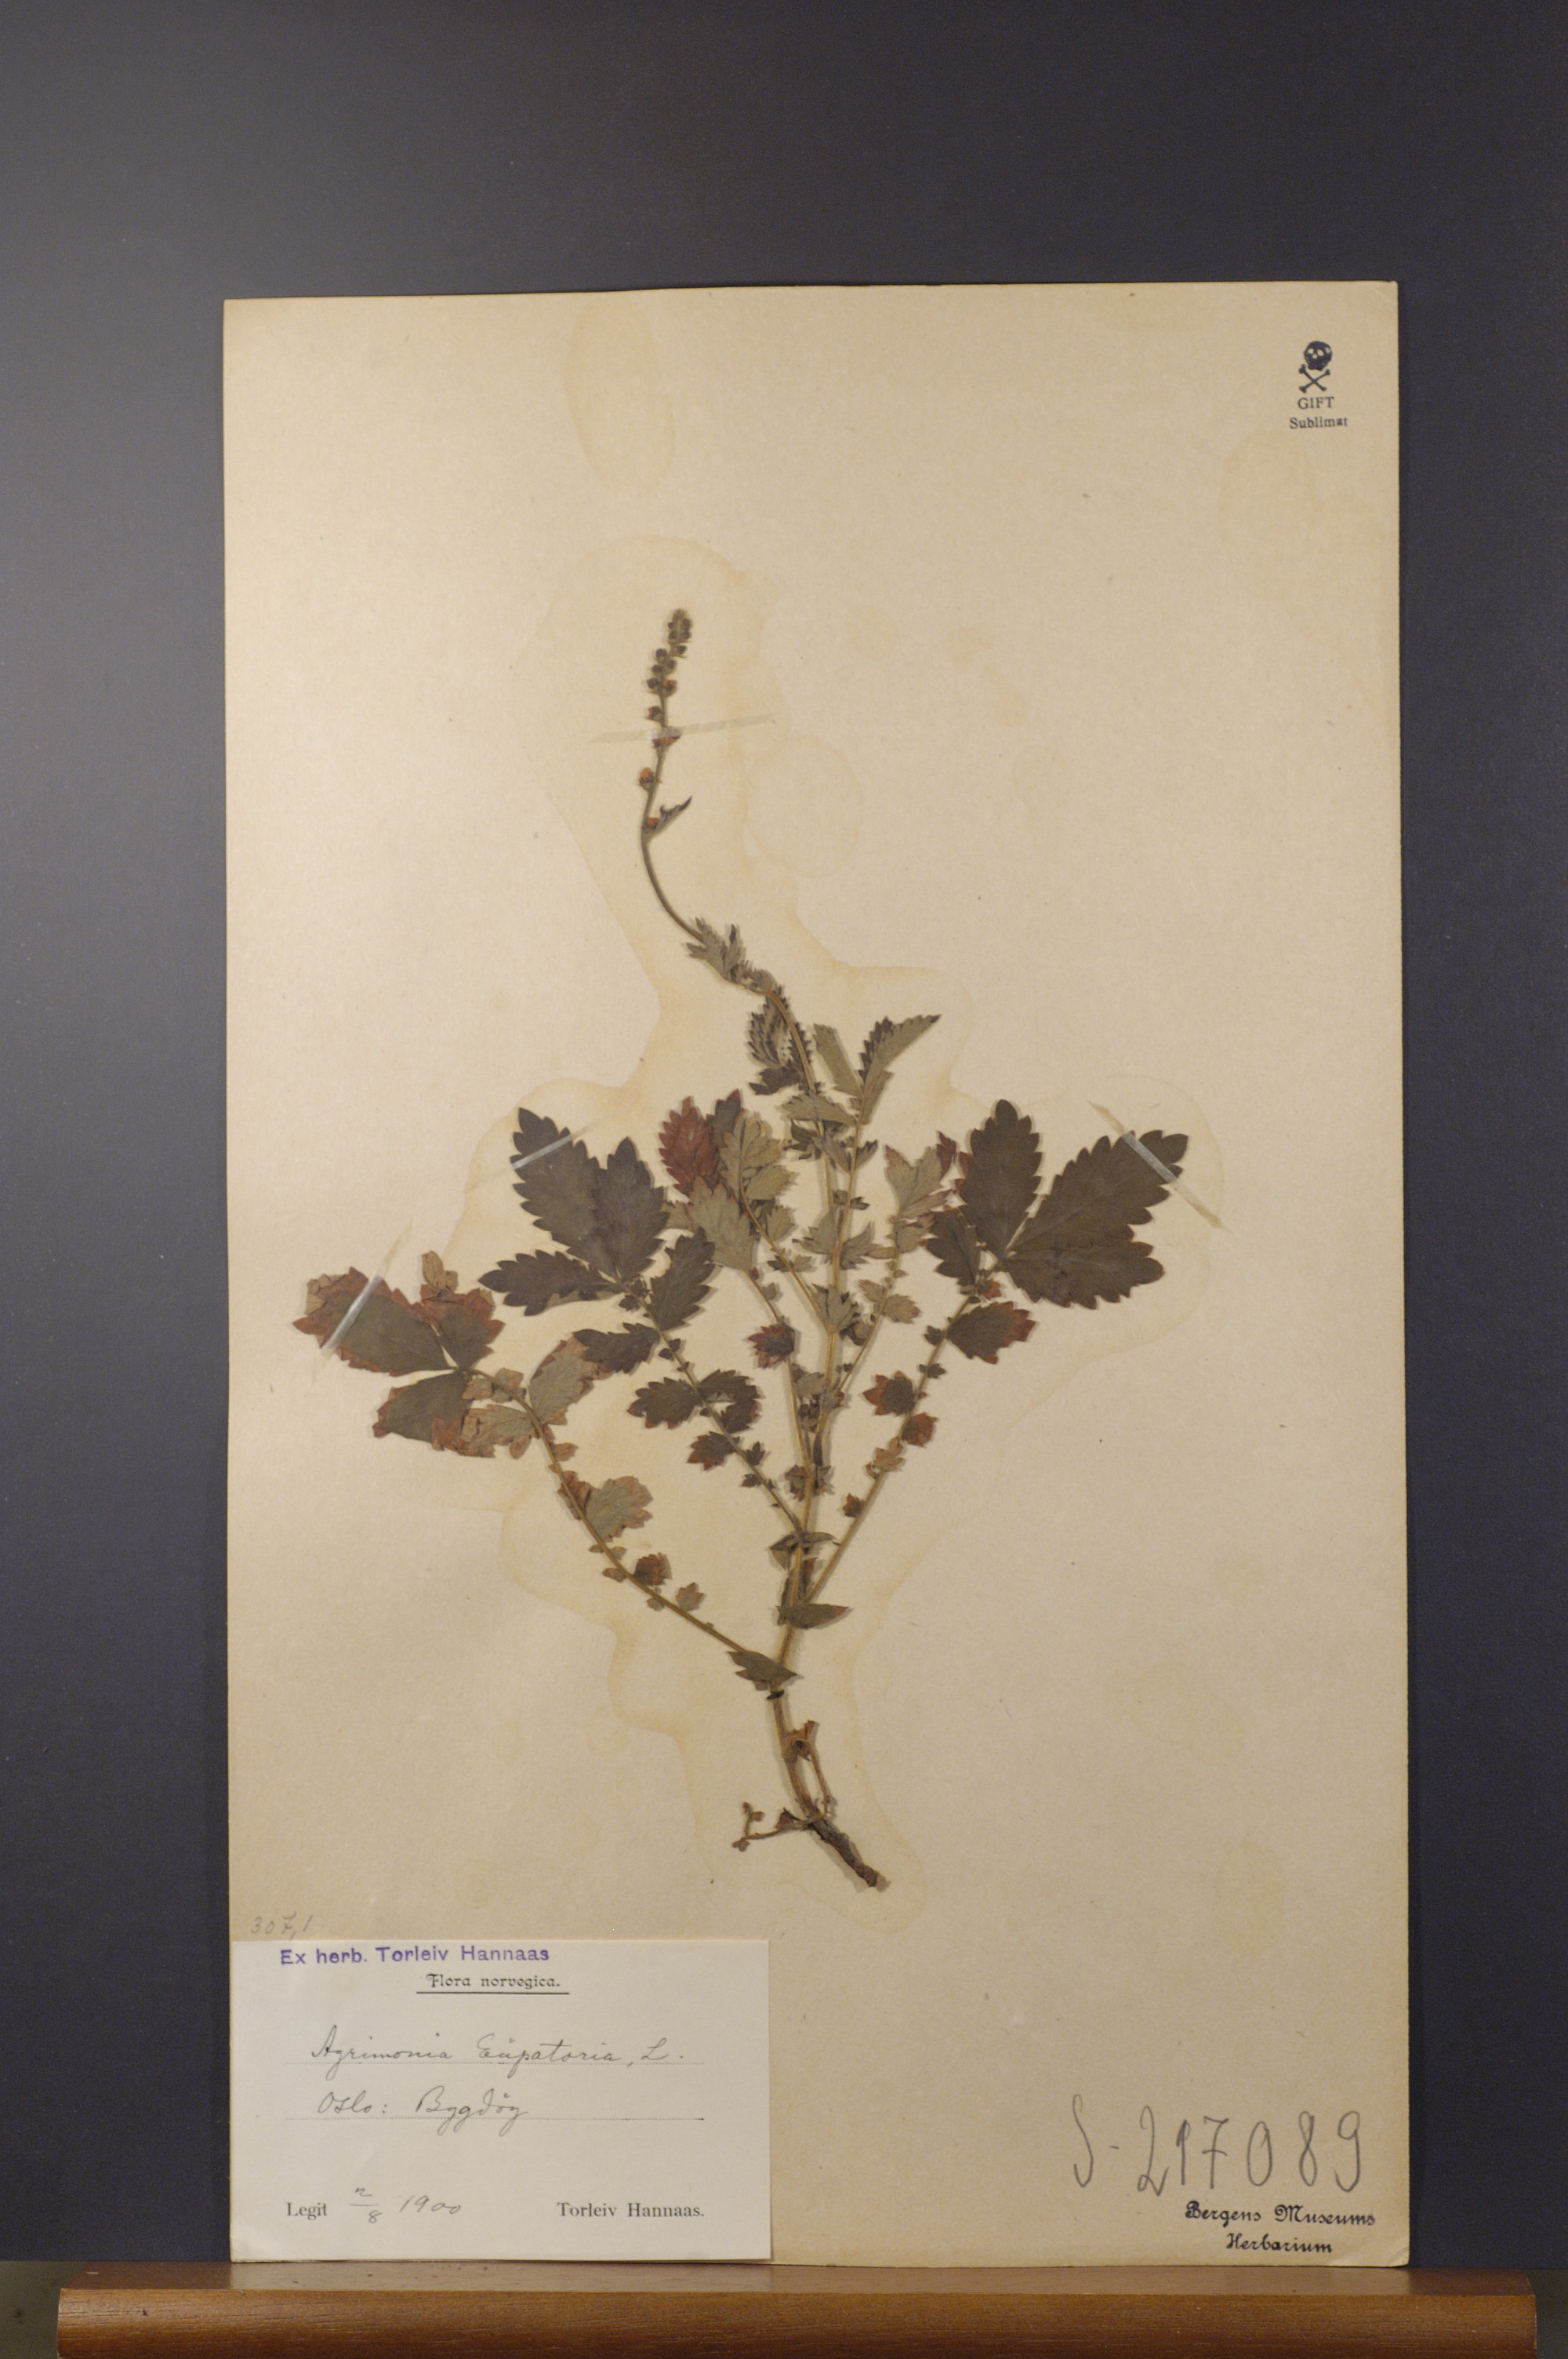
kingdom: Plantae
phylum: Tracheophyta
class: Magnoliopsida
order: Rosales
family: Rosaceae
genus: Agrimonia
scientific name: Agrimonia eupatoria
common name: Agrimony
